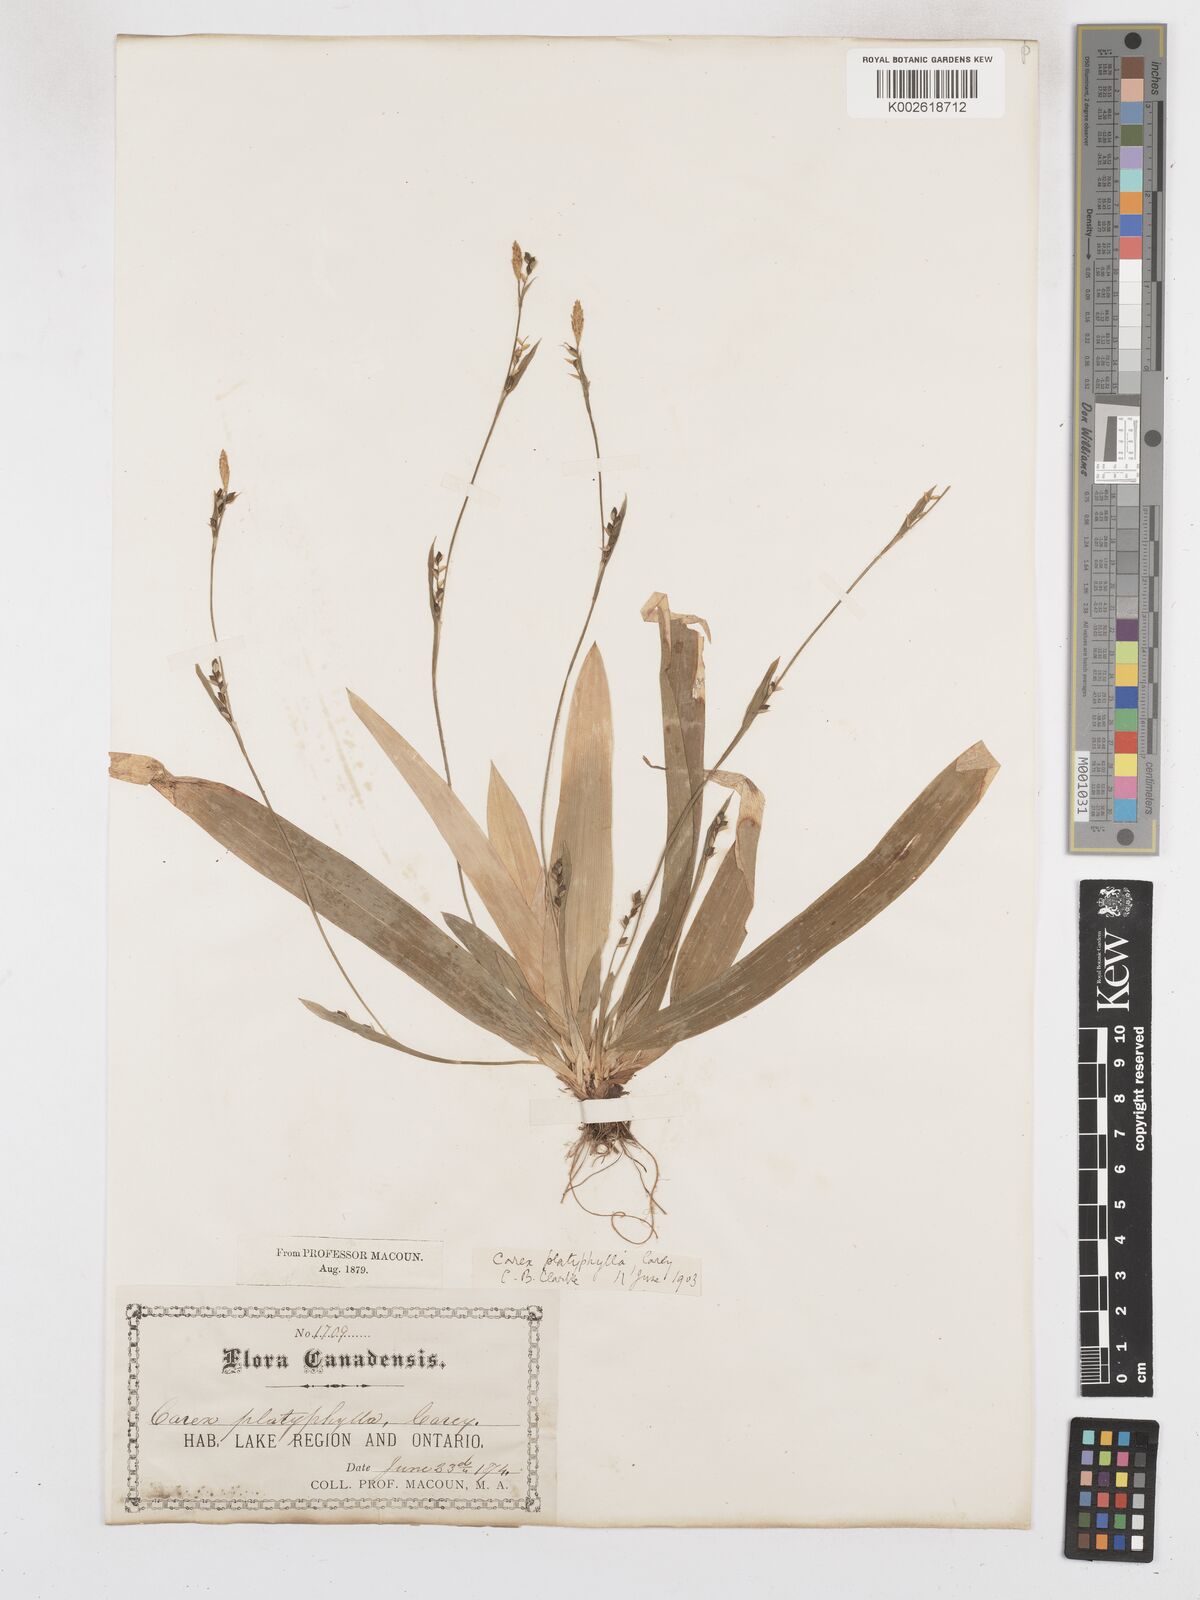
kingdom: Plantae
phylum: Tracheophyta
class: Liliopsida
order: Poales
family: Cyperaceae
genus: Carex
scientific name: Carex platyphylla
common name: Broad-leaved sedge
